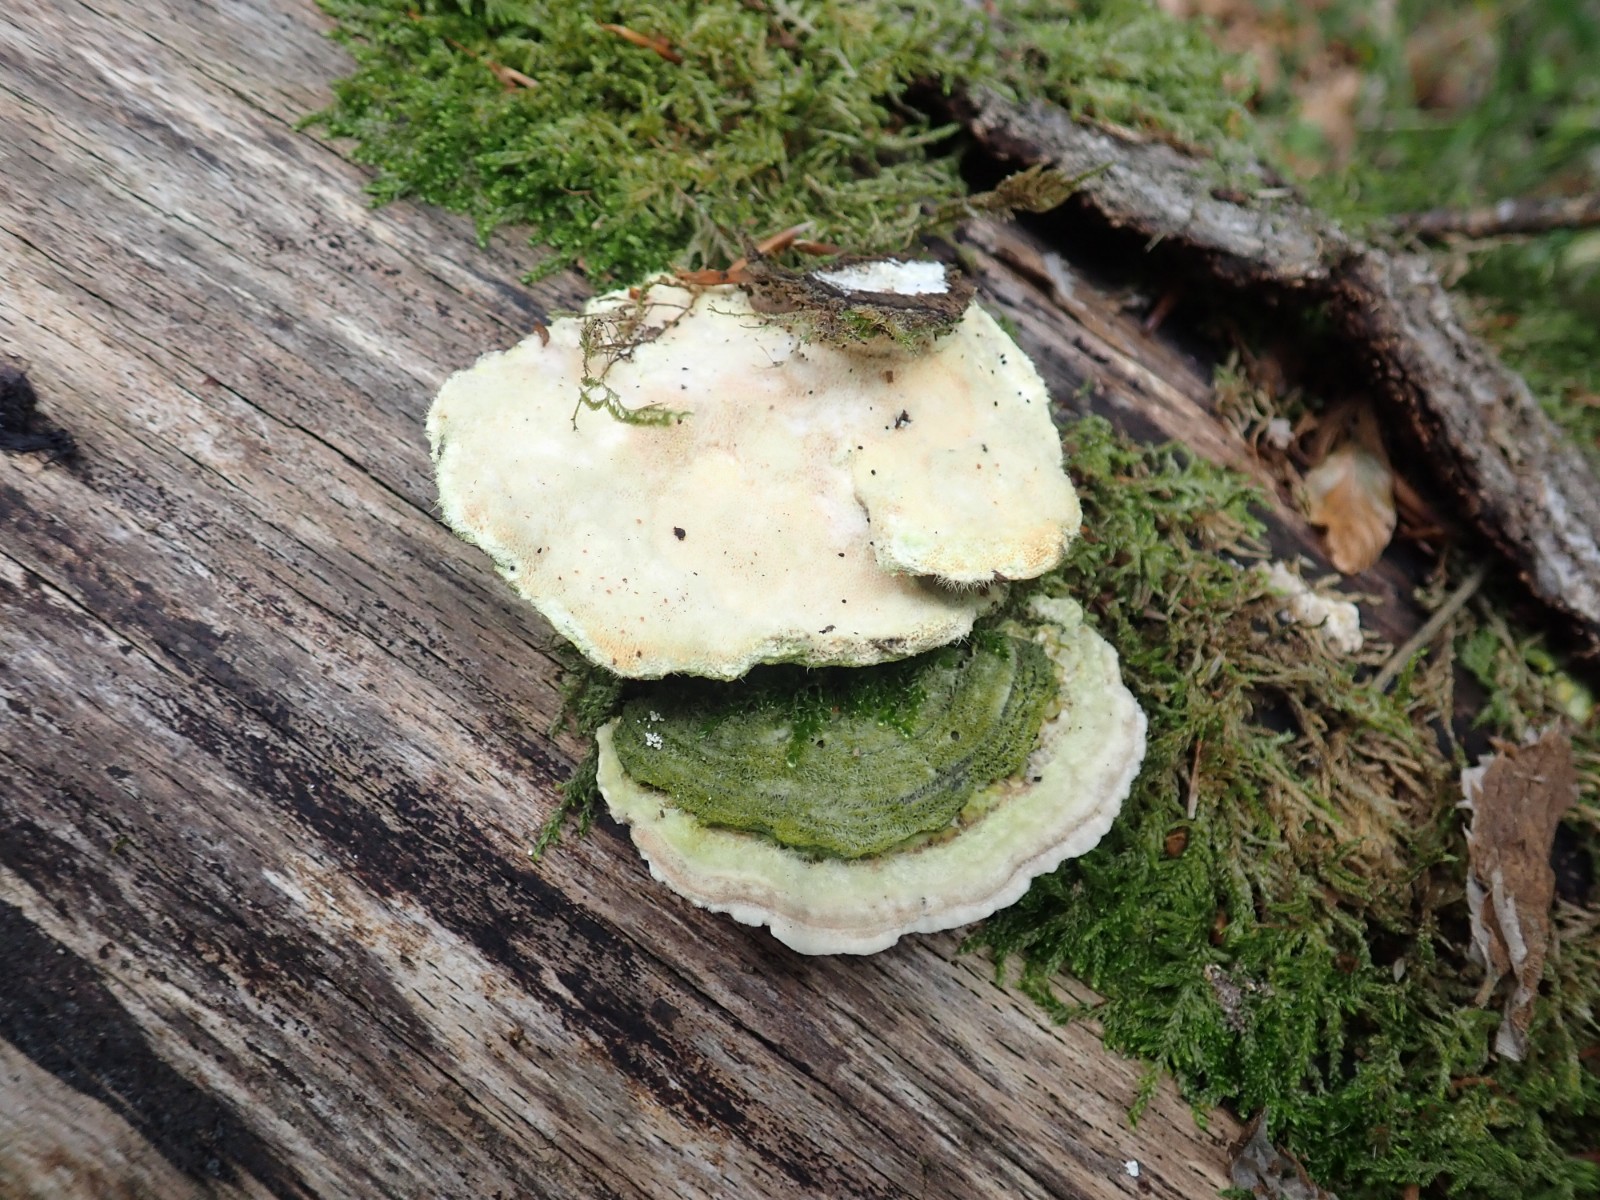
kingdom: Fungi
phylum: Basidiomycota
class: Agaricomycetes
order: Polyporales
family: Polyporaceae
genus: Trametes
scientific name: Trametes hirsuta
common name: håret læderporesvamp
